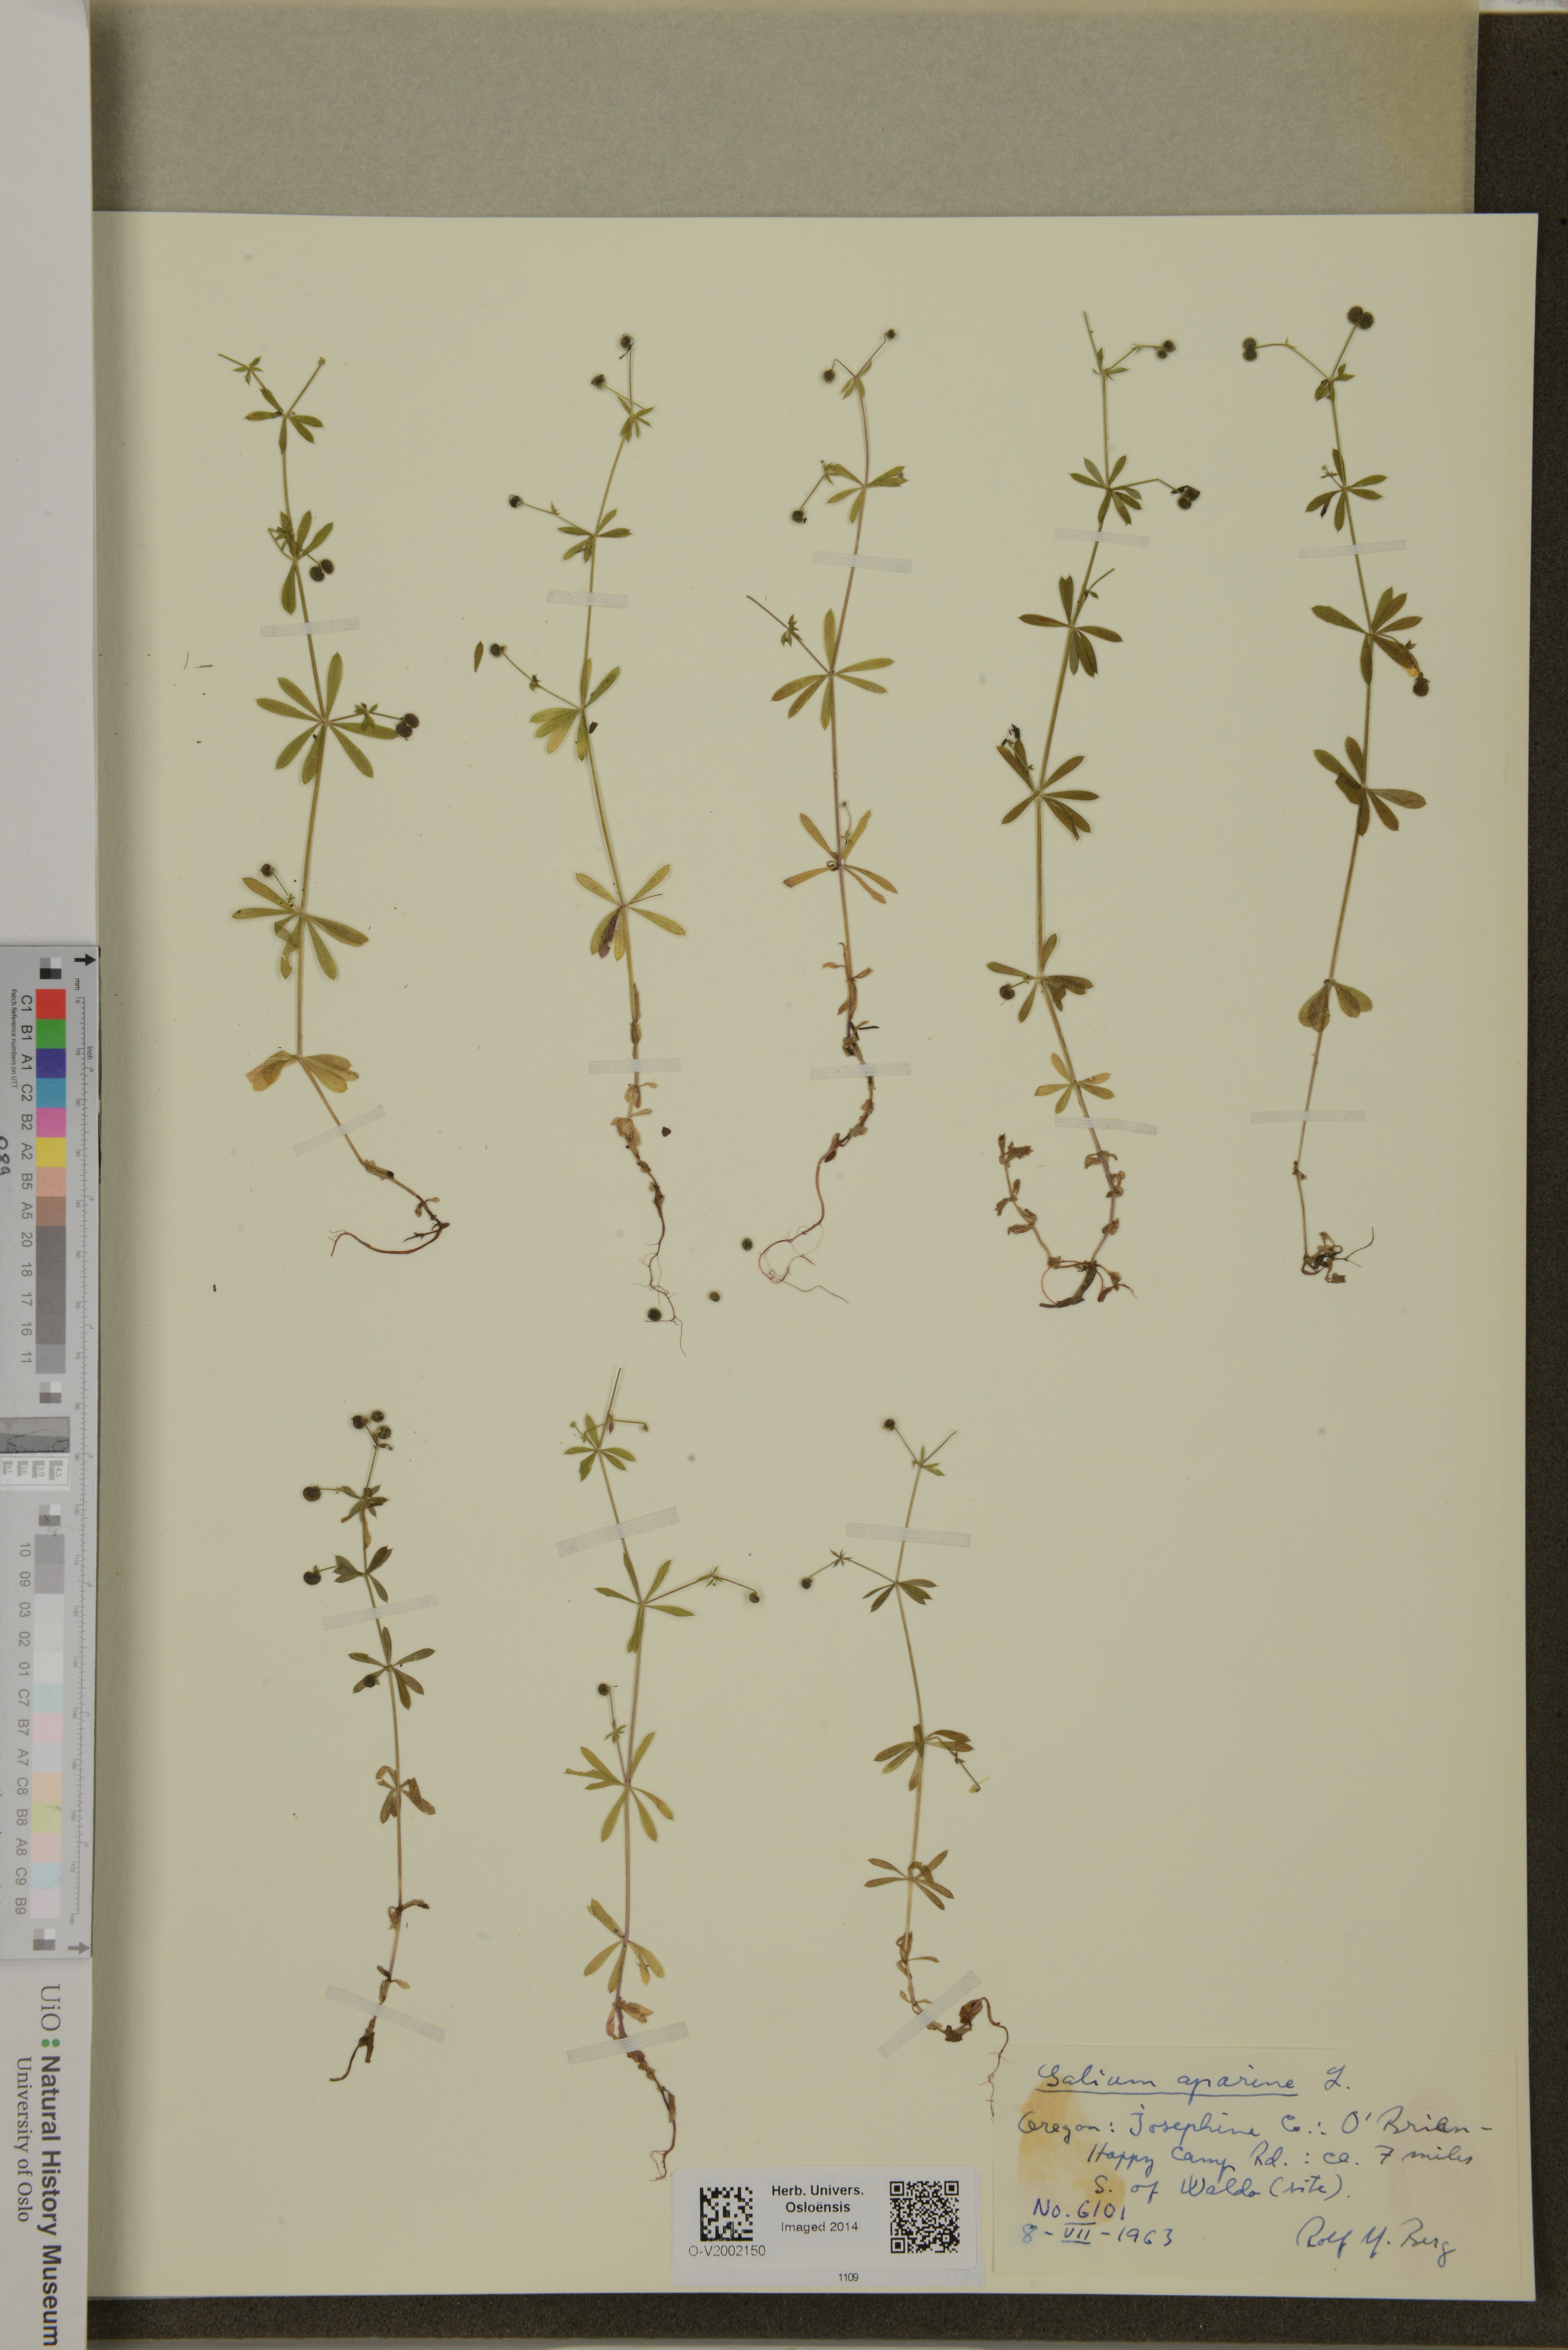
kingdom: Plantae
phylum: Tracheophyta
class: Magnoliopsida
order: Gentianales
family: Rubiaceae
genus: Galium
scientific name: Galium aparine
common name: Cleavers
